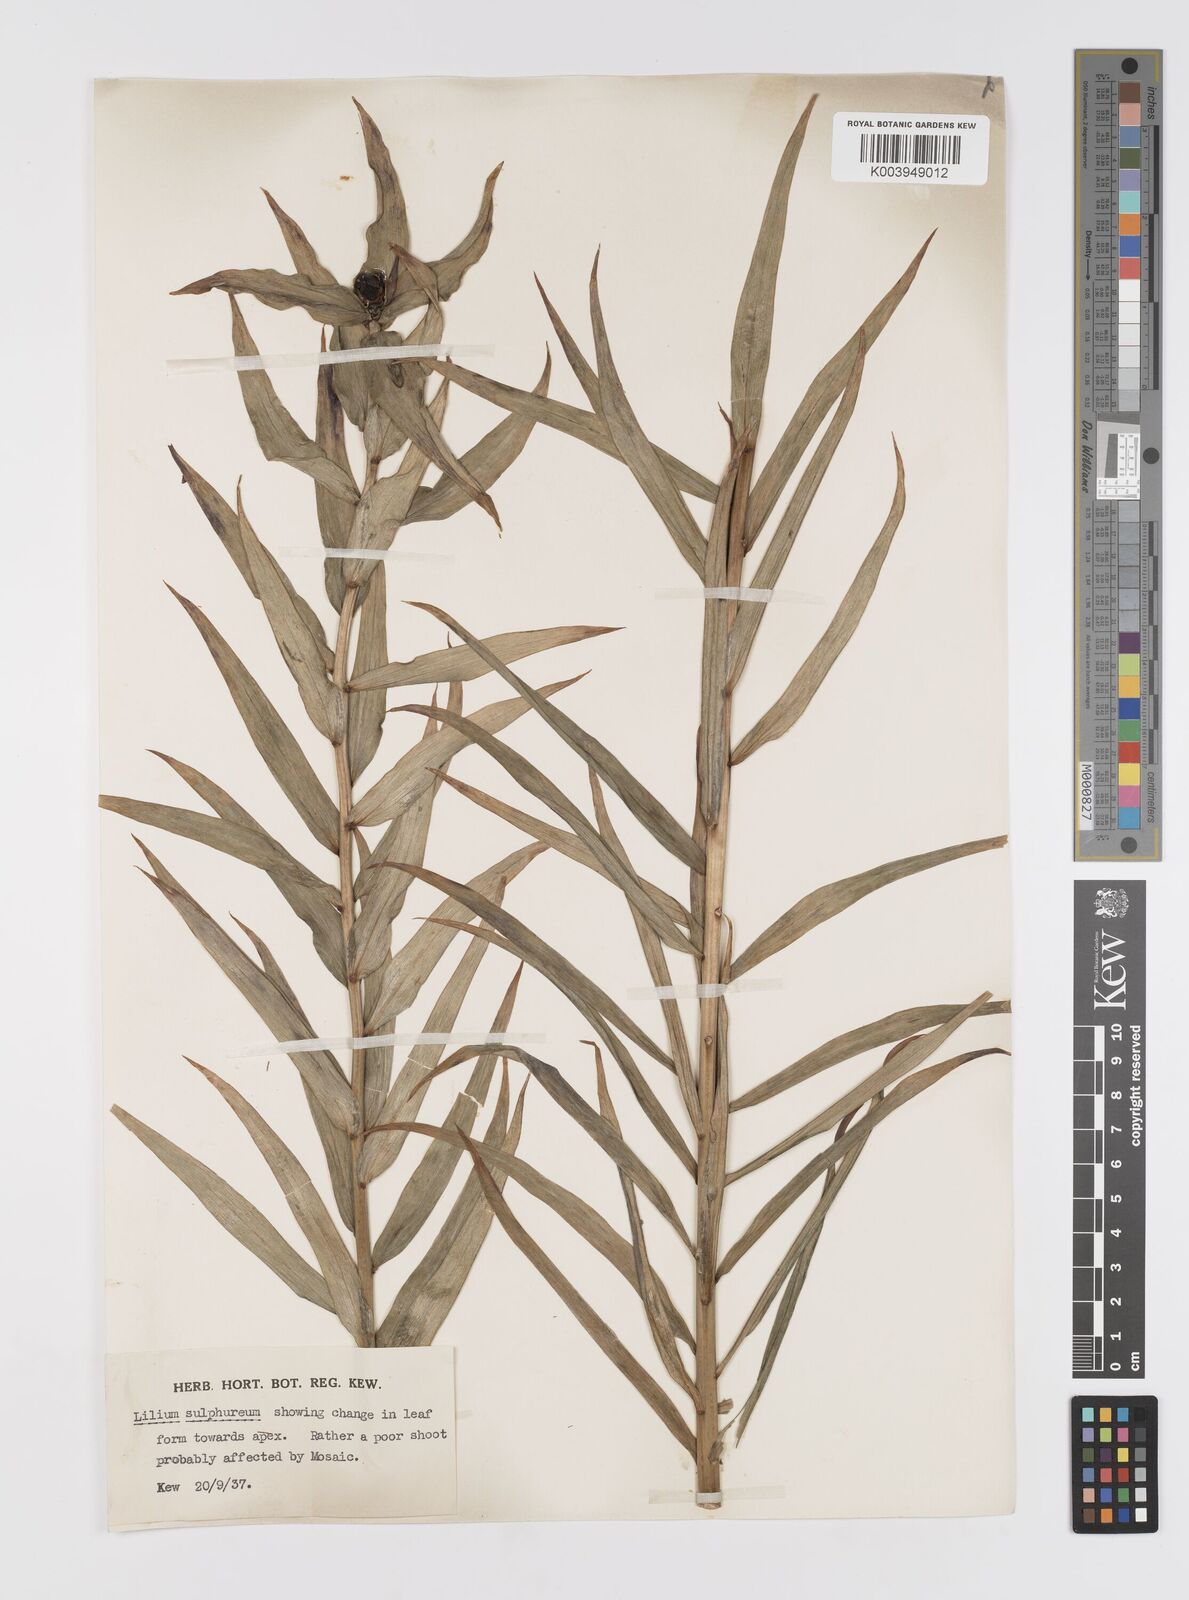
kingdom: Plantae
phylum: Tracheophyta
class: Liliopsida
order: Liliales
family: Liliaceae
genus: Lilium
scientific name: Lilium
